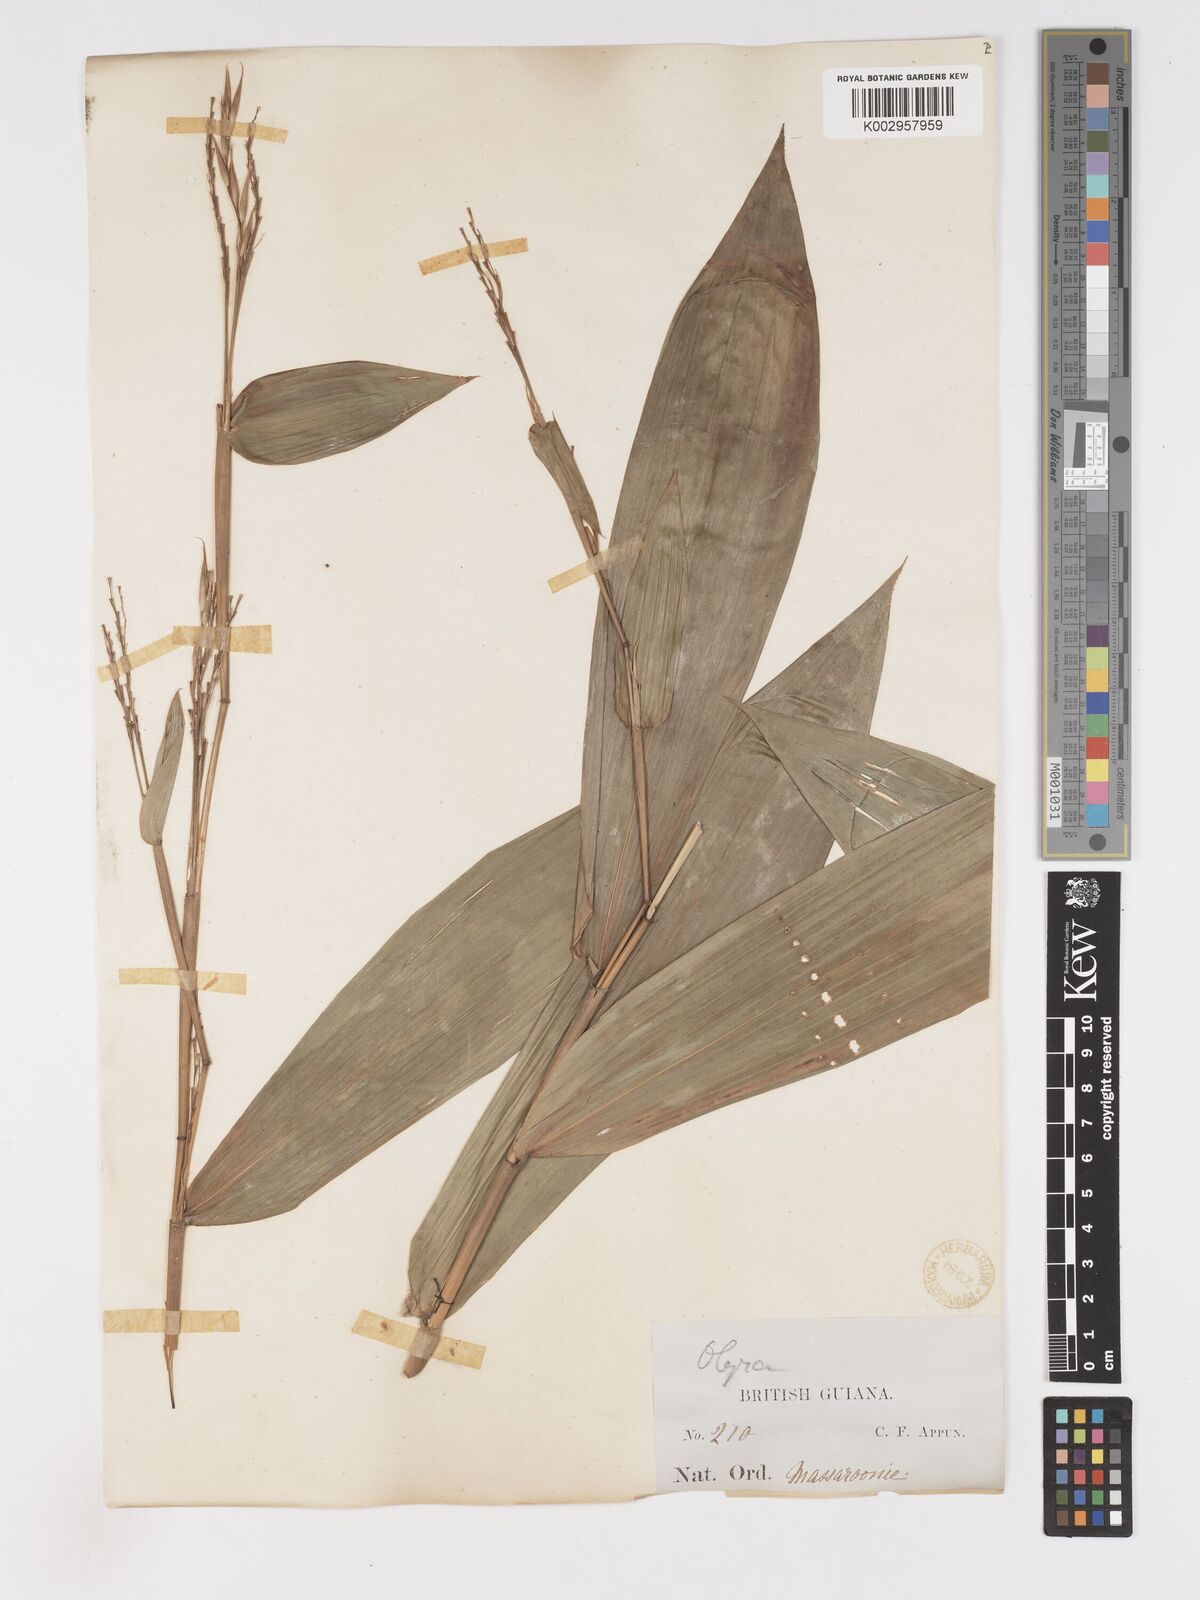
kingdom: Plantae
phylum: Tracheophyta
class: Liliopsida
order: Poales
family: Poaceae
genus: Olyra
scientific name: Olyra longifolia
